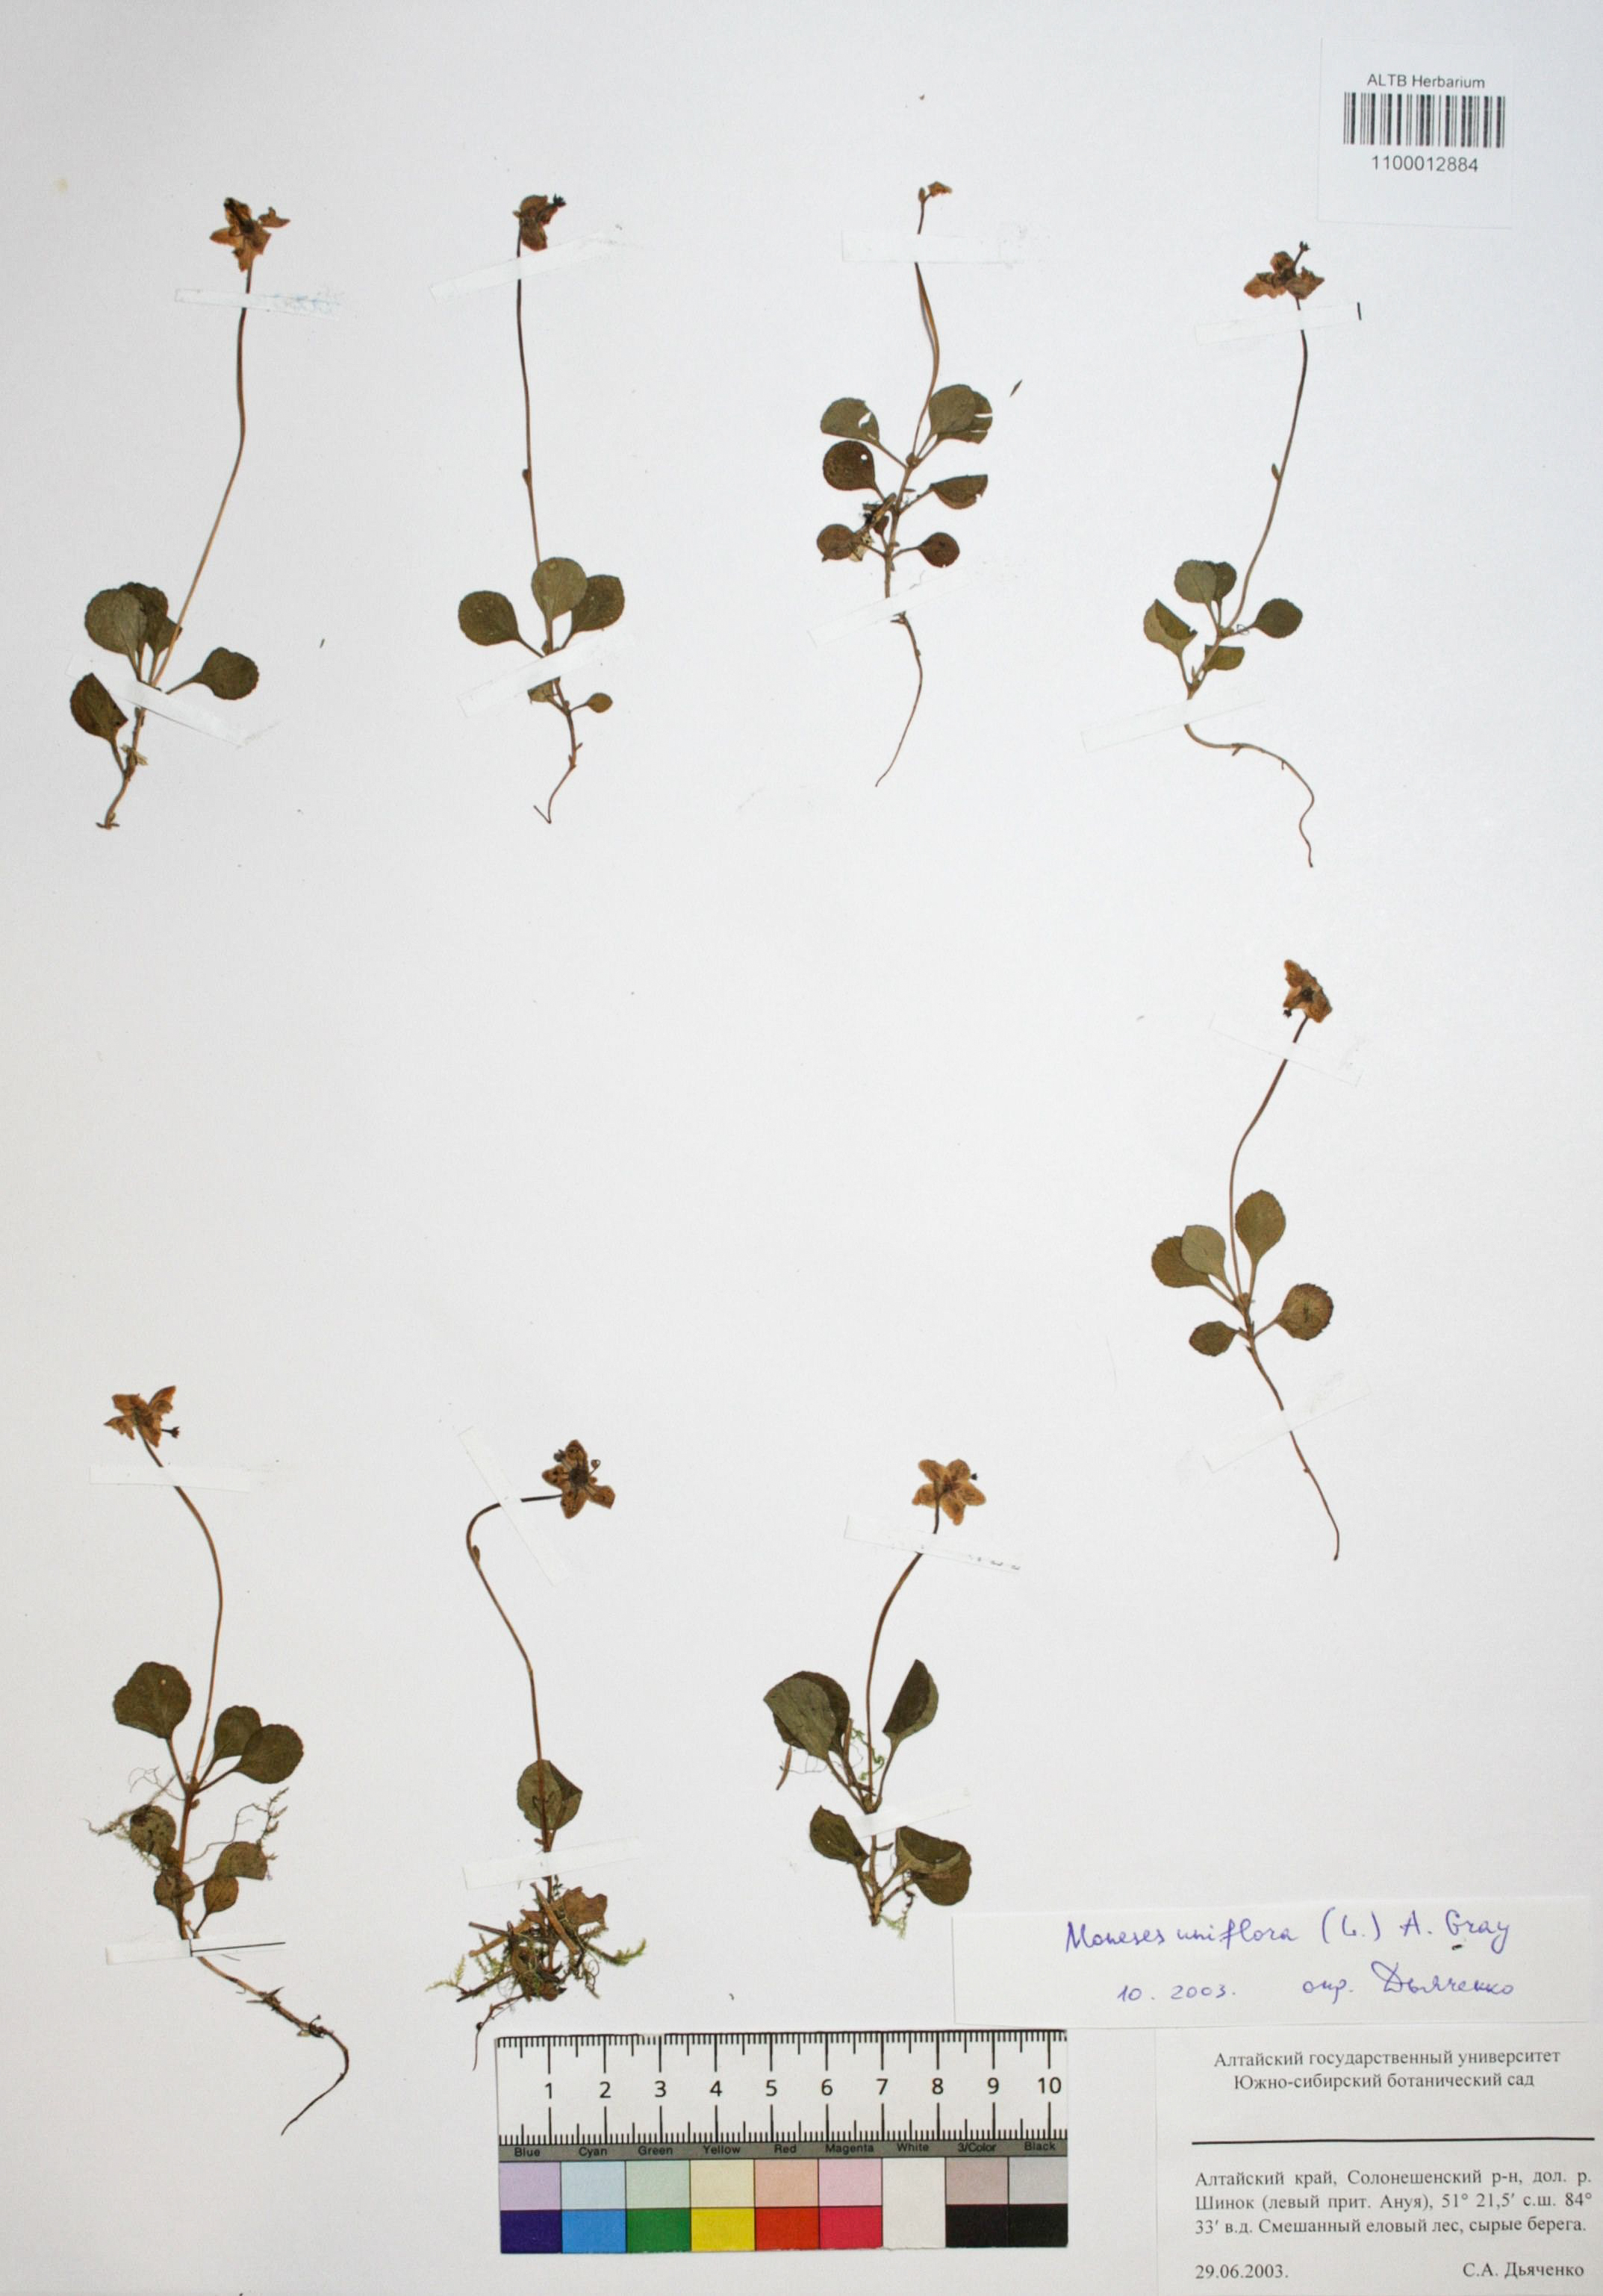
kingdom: Plantae
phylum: Tracheophyta
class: Magnoliopsida
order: Ericales
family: Ericaceae
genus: Moneses
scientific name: Moneses uniflora
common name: One-flowered wintergreen
